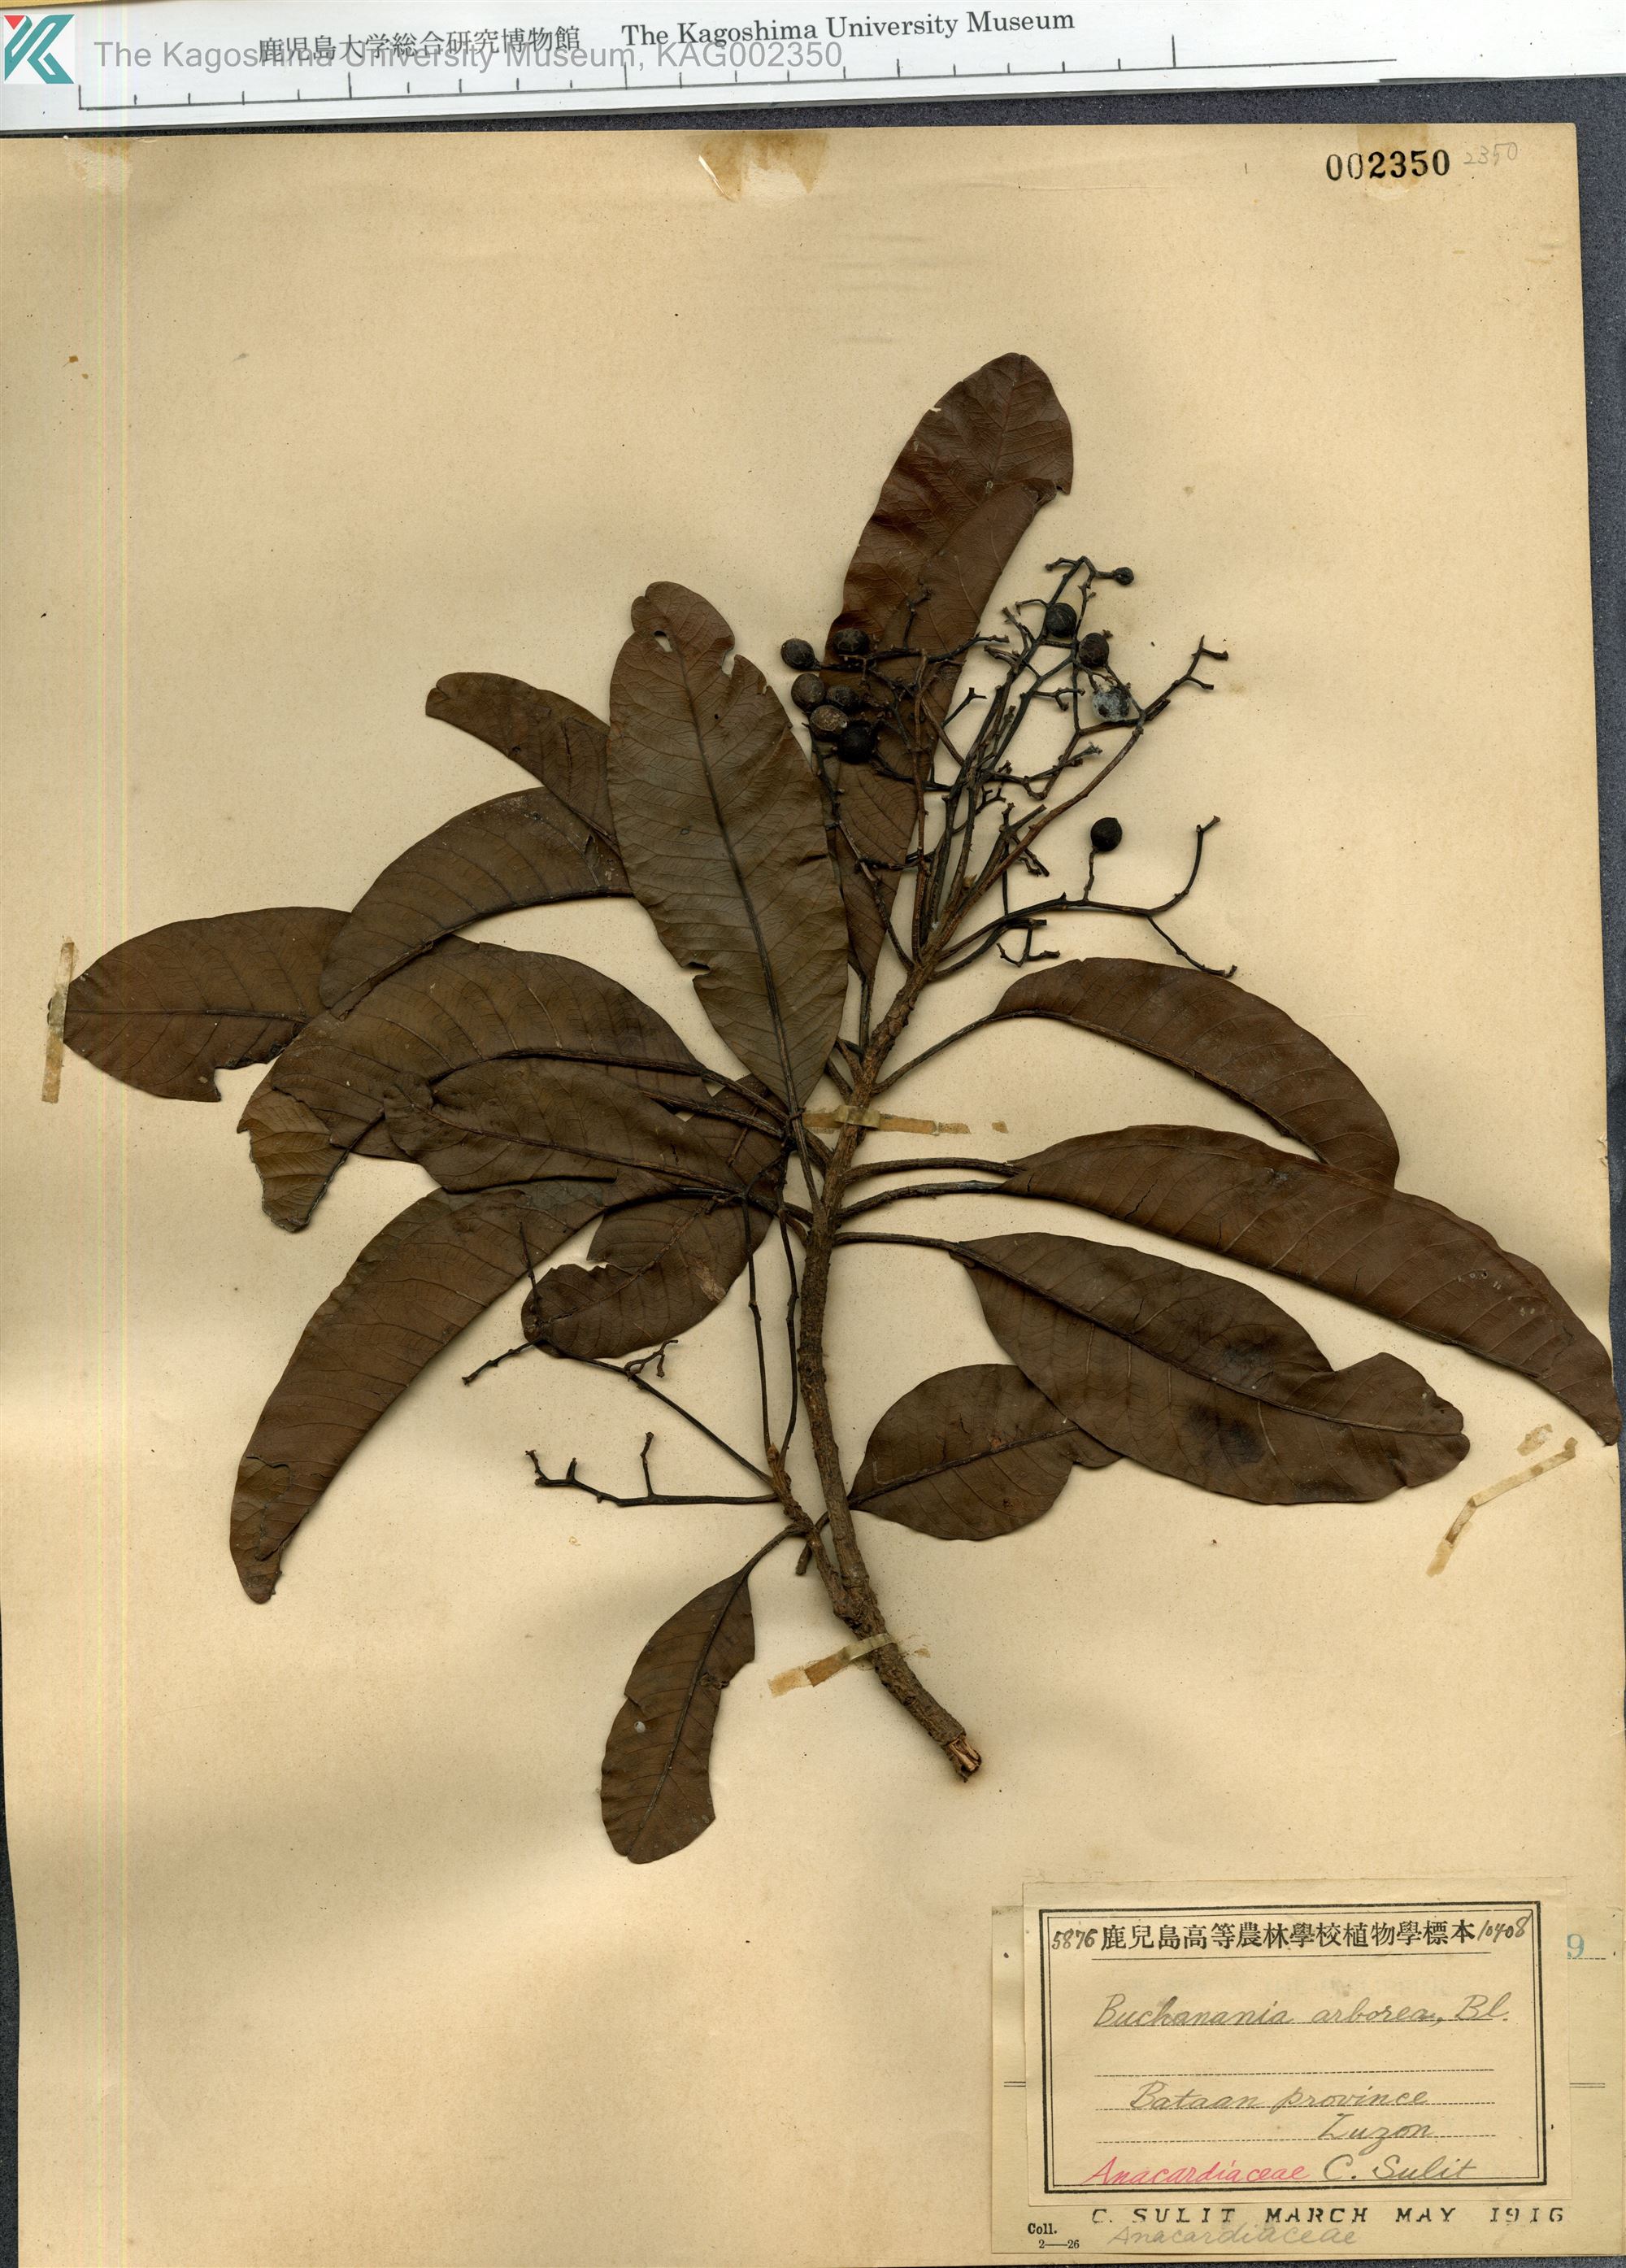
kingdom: Plantae
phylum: Tracheophyta
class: Magnoliopsida
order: Sapindales
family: Anacardiaceae
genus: Buchanania
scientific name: Buchanania arborescens
